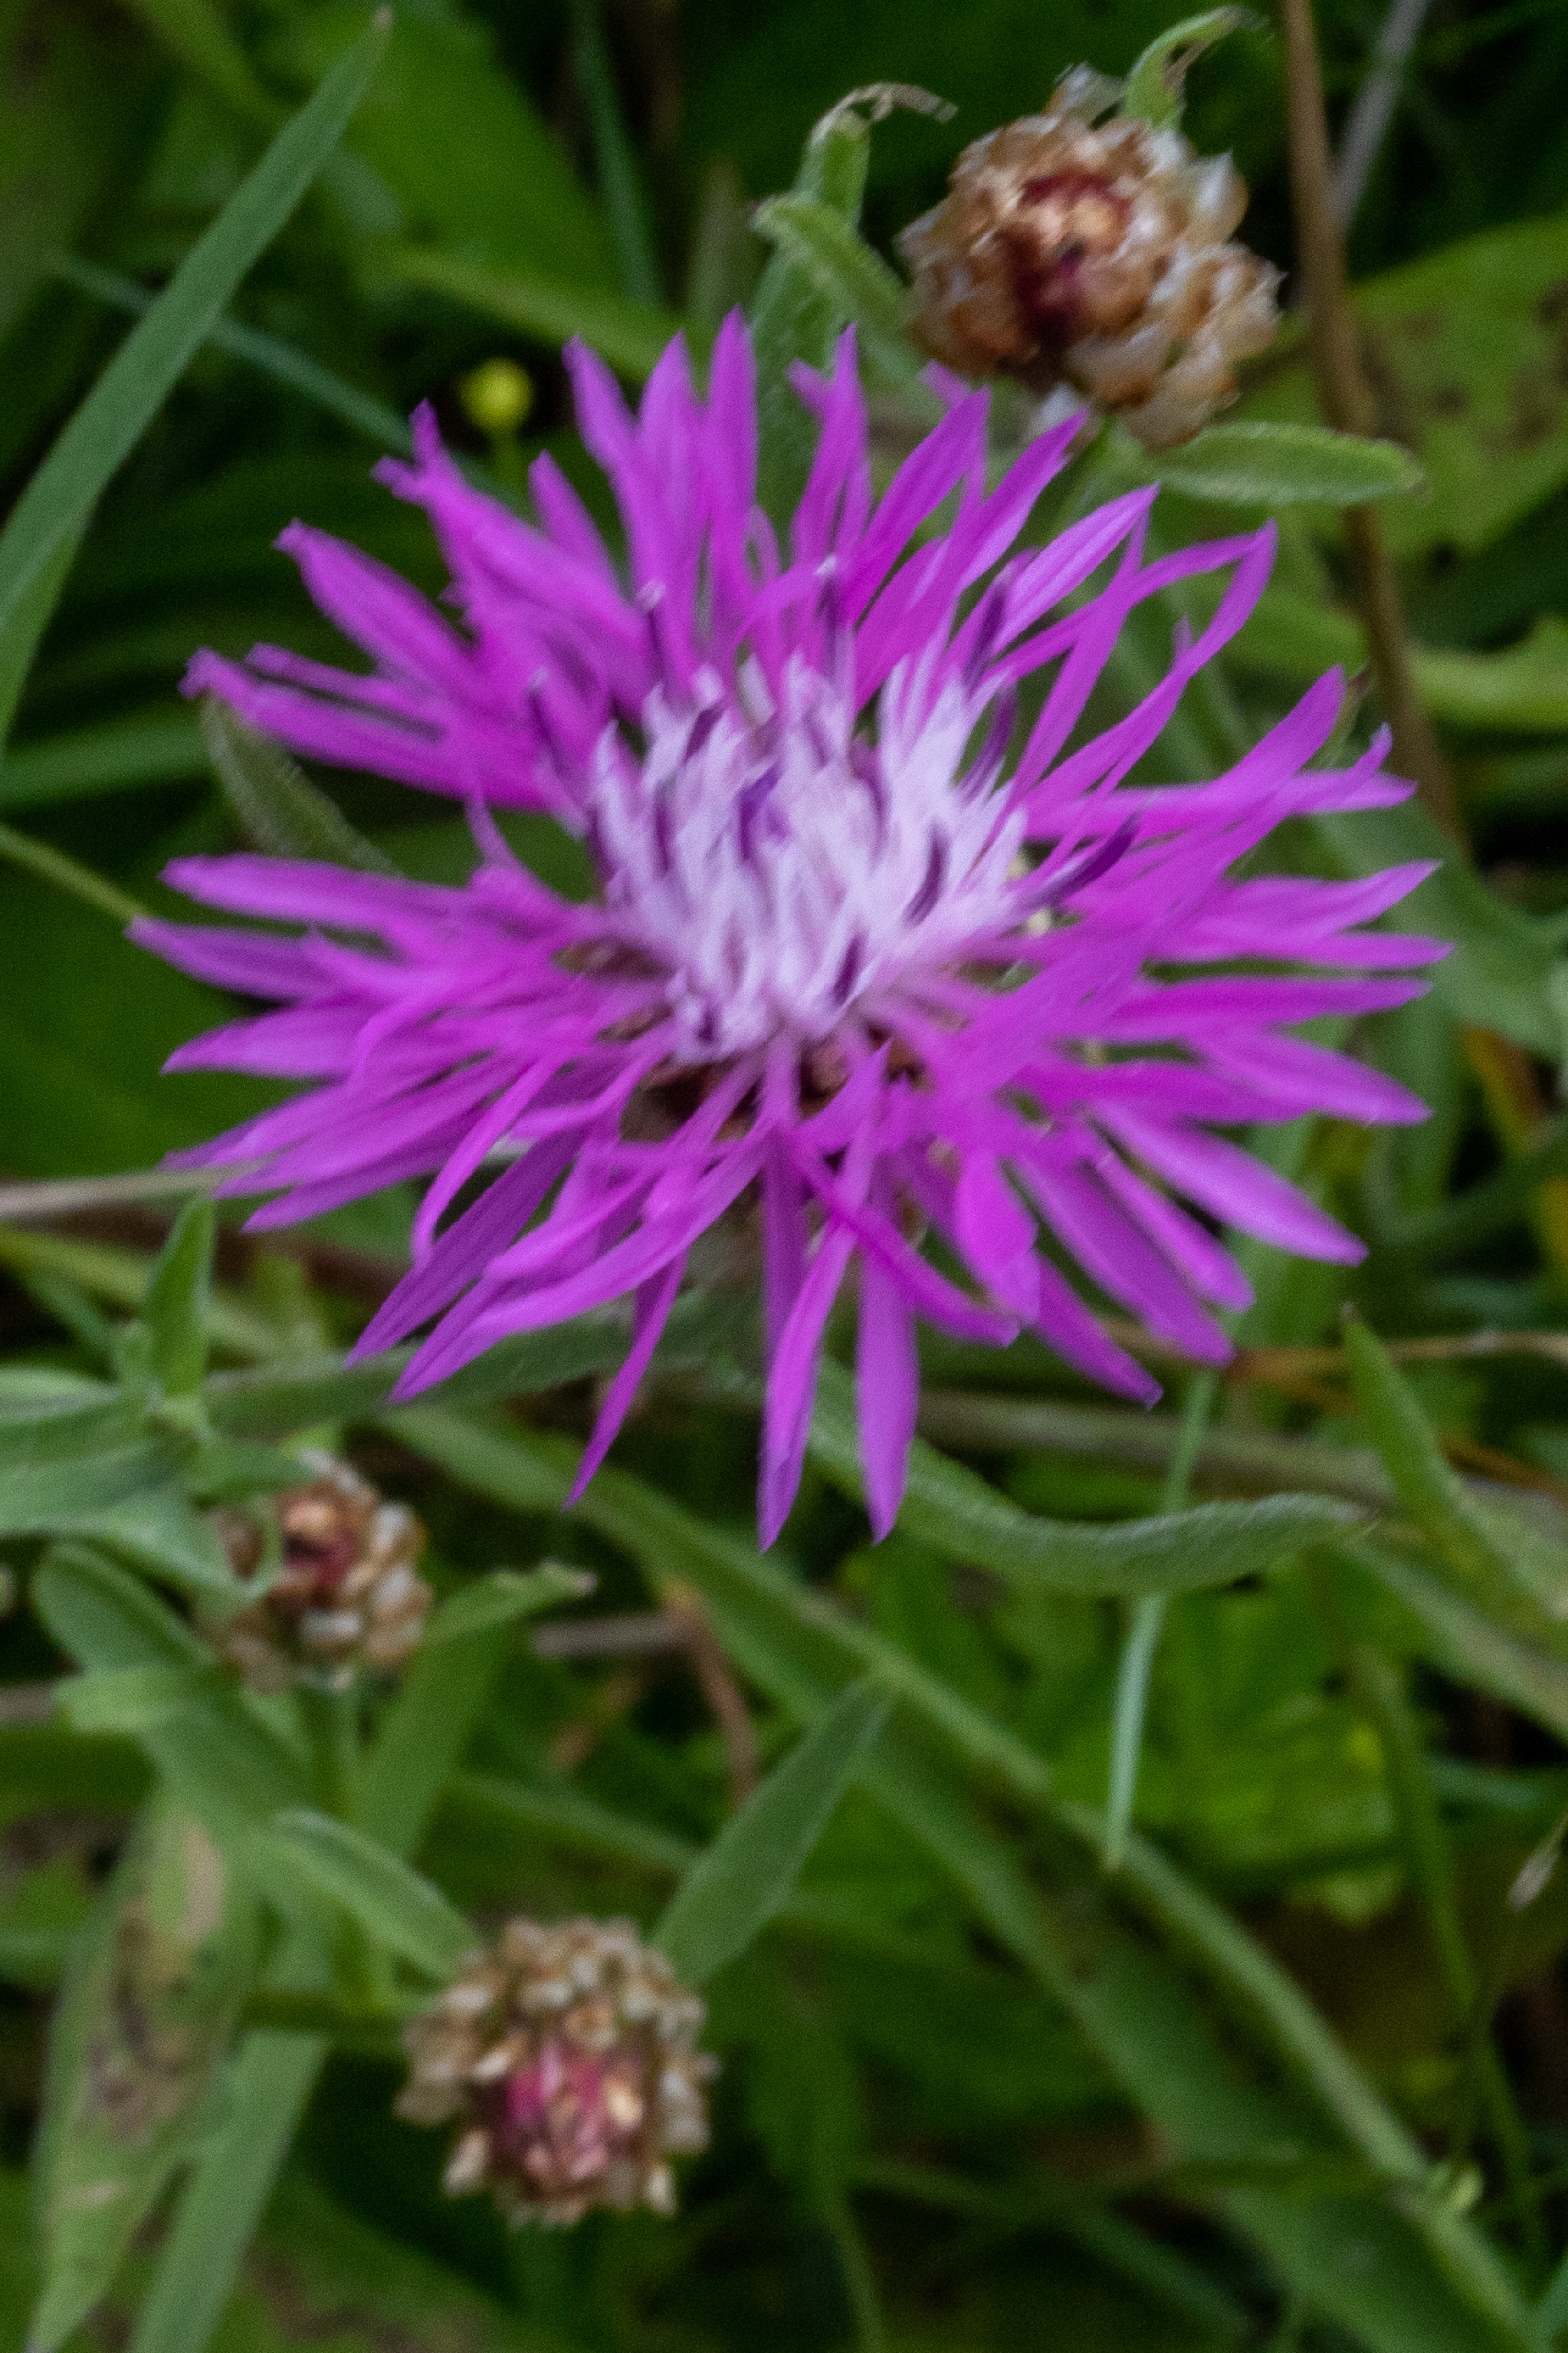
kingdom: Plantae
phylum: Tracheophyta
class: Magnoliopsida
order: Asterales
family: Asteraceae
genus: Centaurea
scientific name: Centaurea jacea
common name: Almindelig knopurt
